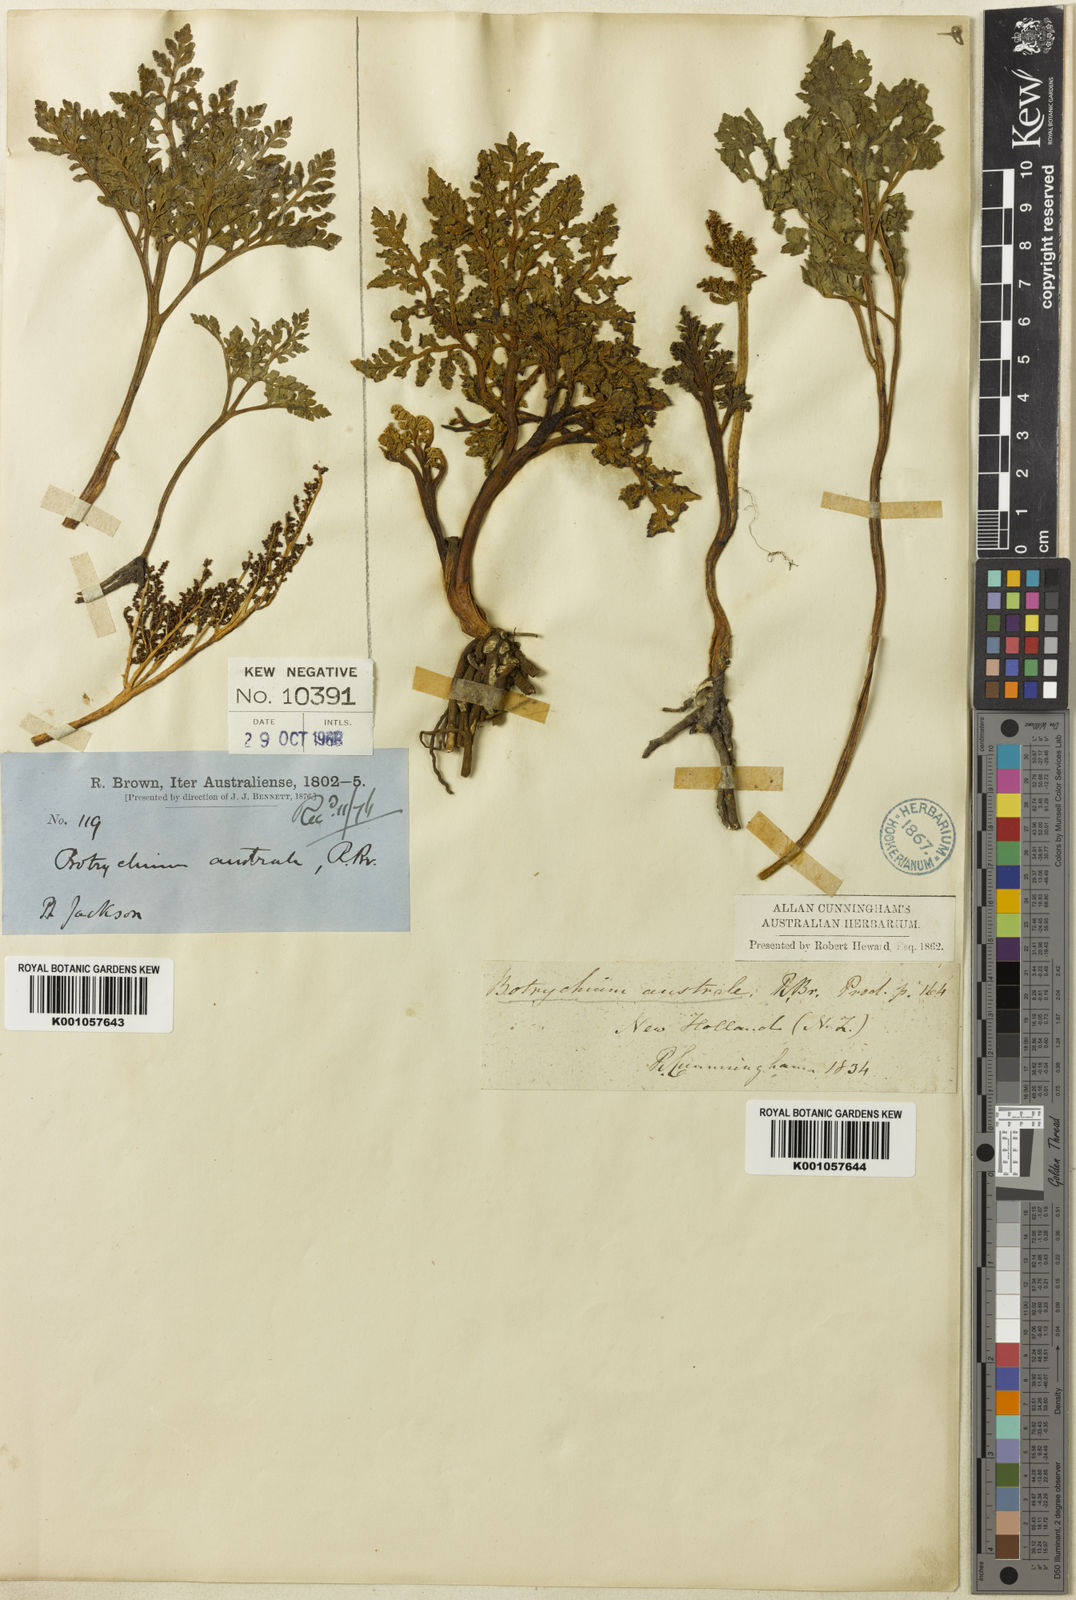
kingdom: Plantae
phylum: Tracheophyta
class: Polypodiopsida
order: Ophioglossales
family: Ophioglossaceae
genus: Sceptridium
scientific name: Sceptridium australe
